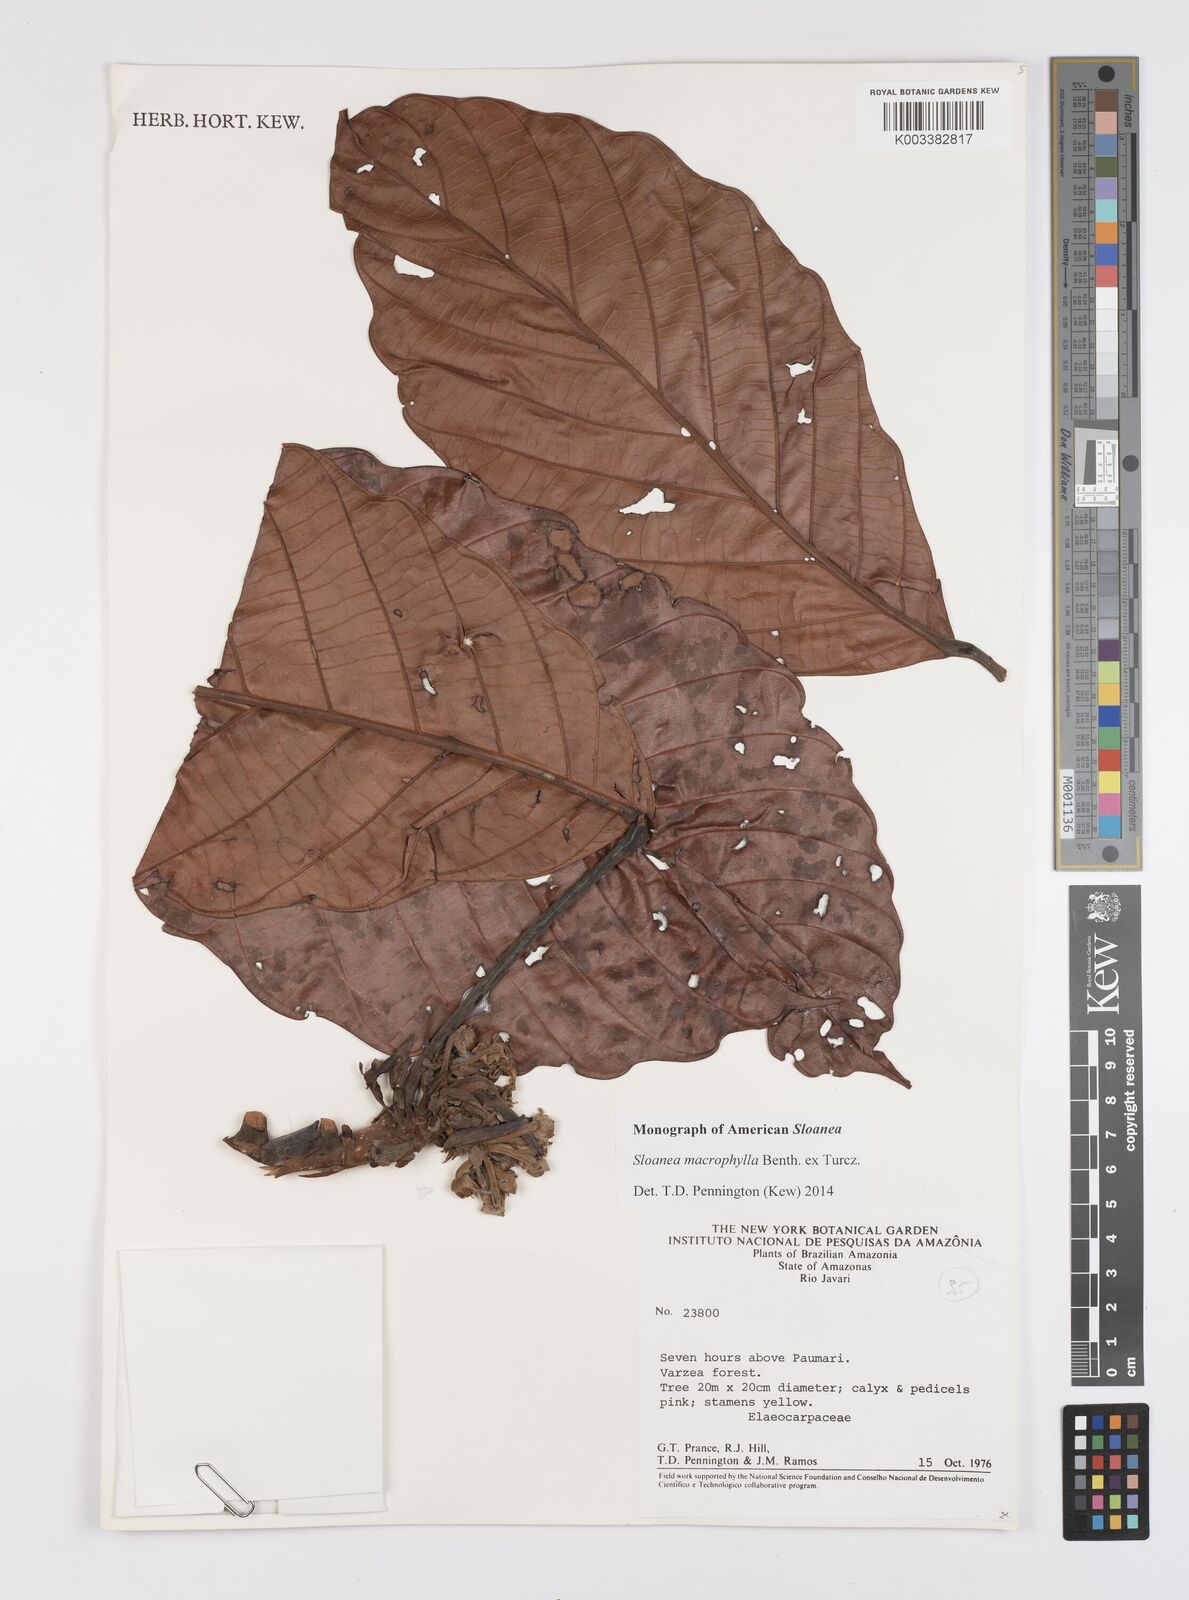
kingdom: Plantae
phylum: Tracheophyta
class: Magnoliopsida
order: Oxalidales
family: Elaeocarpaceae
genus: Sloanea
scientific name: Sloanea macrophylla
